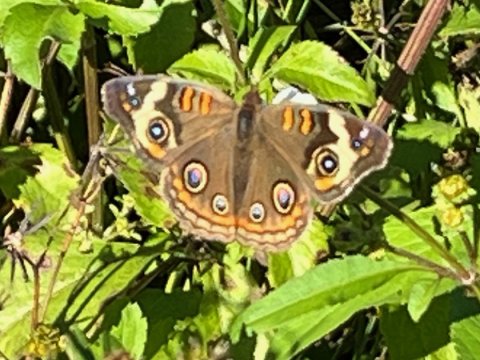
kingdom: Animalia
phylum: Arthropoda
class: Insecta
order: Lepidoptera
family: Nymphalidae
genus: Junonia
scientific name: Junonia coenia
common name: Common Buckeye
